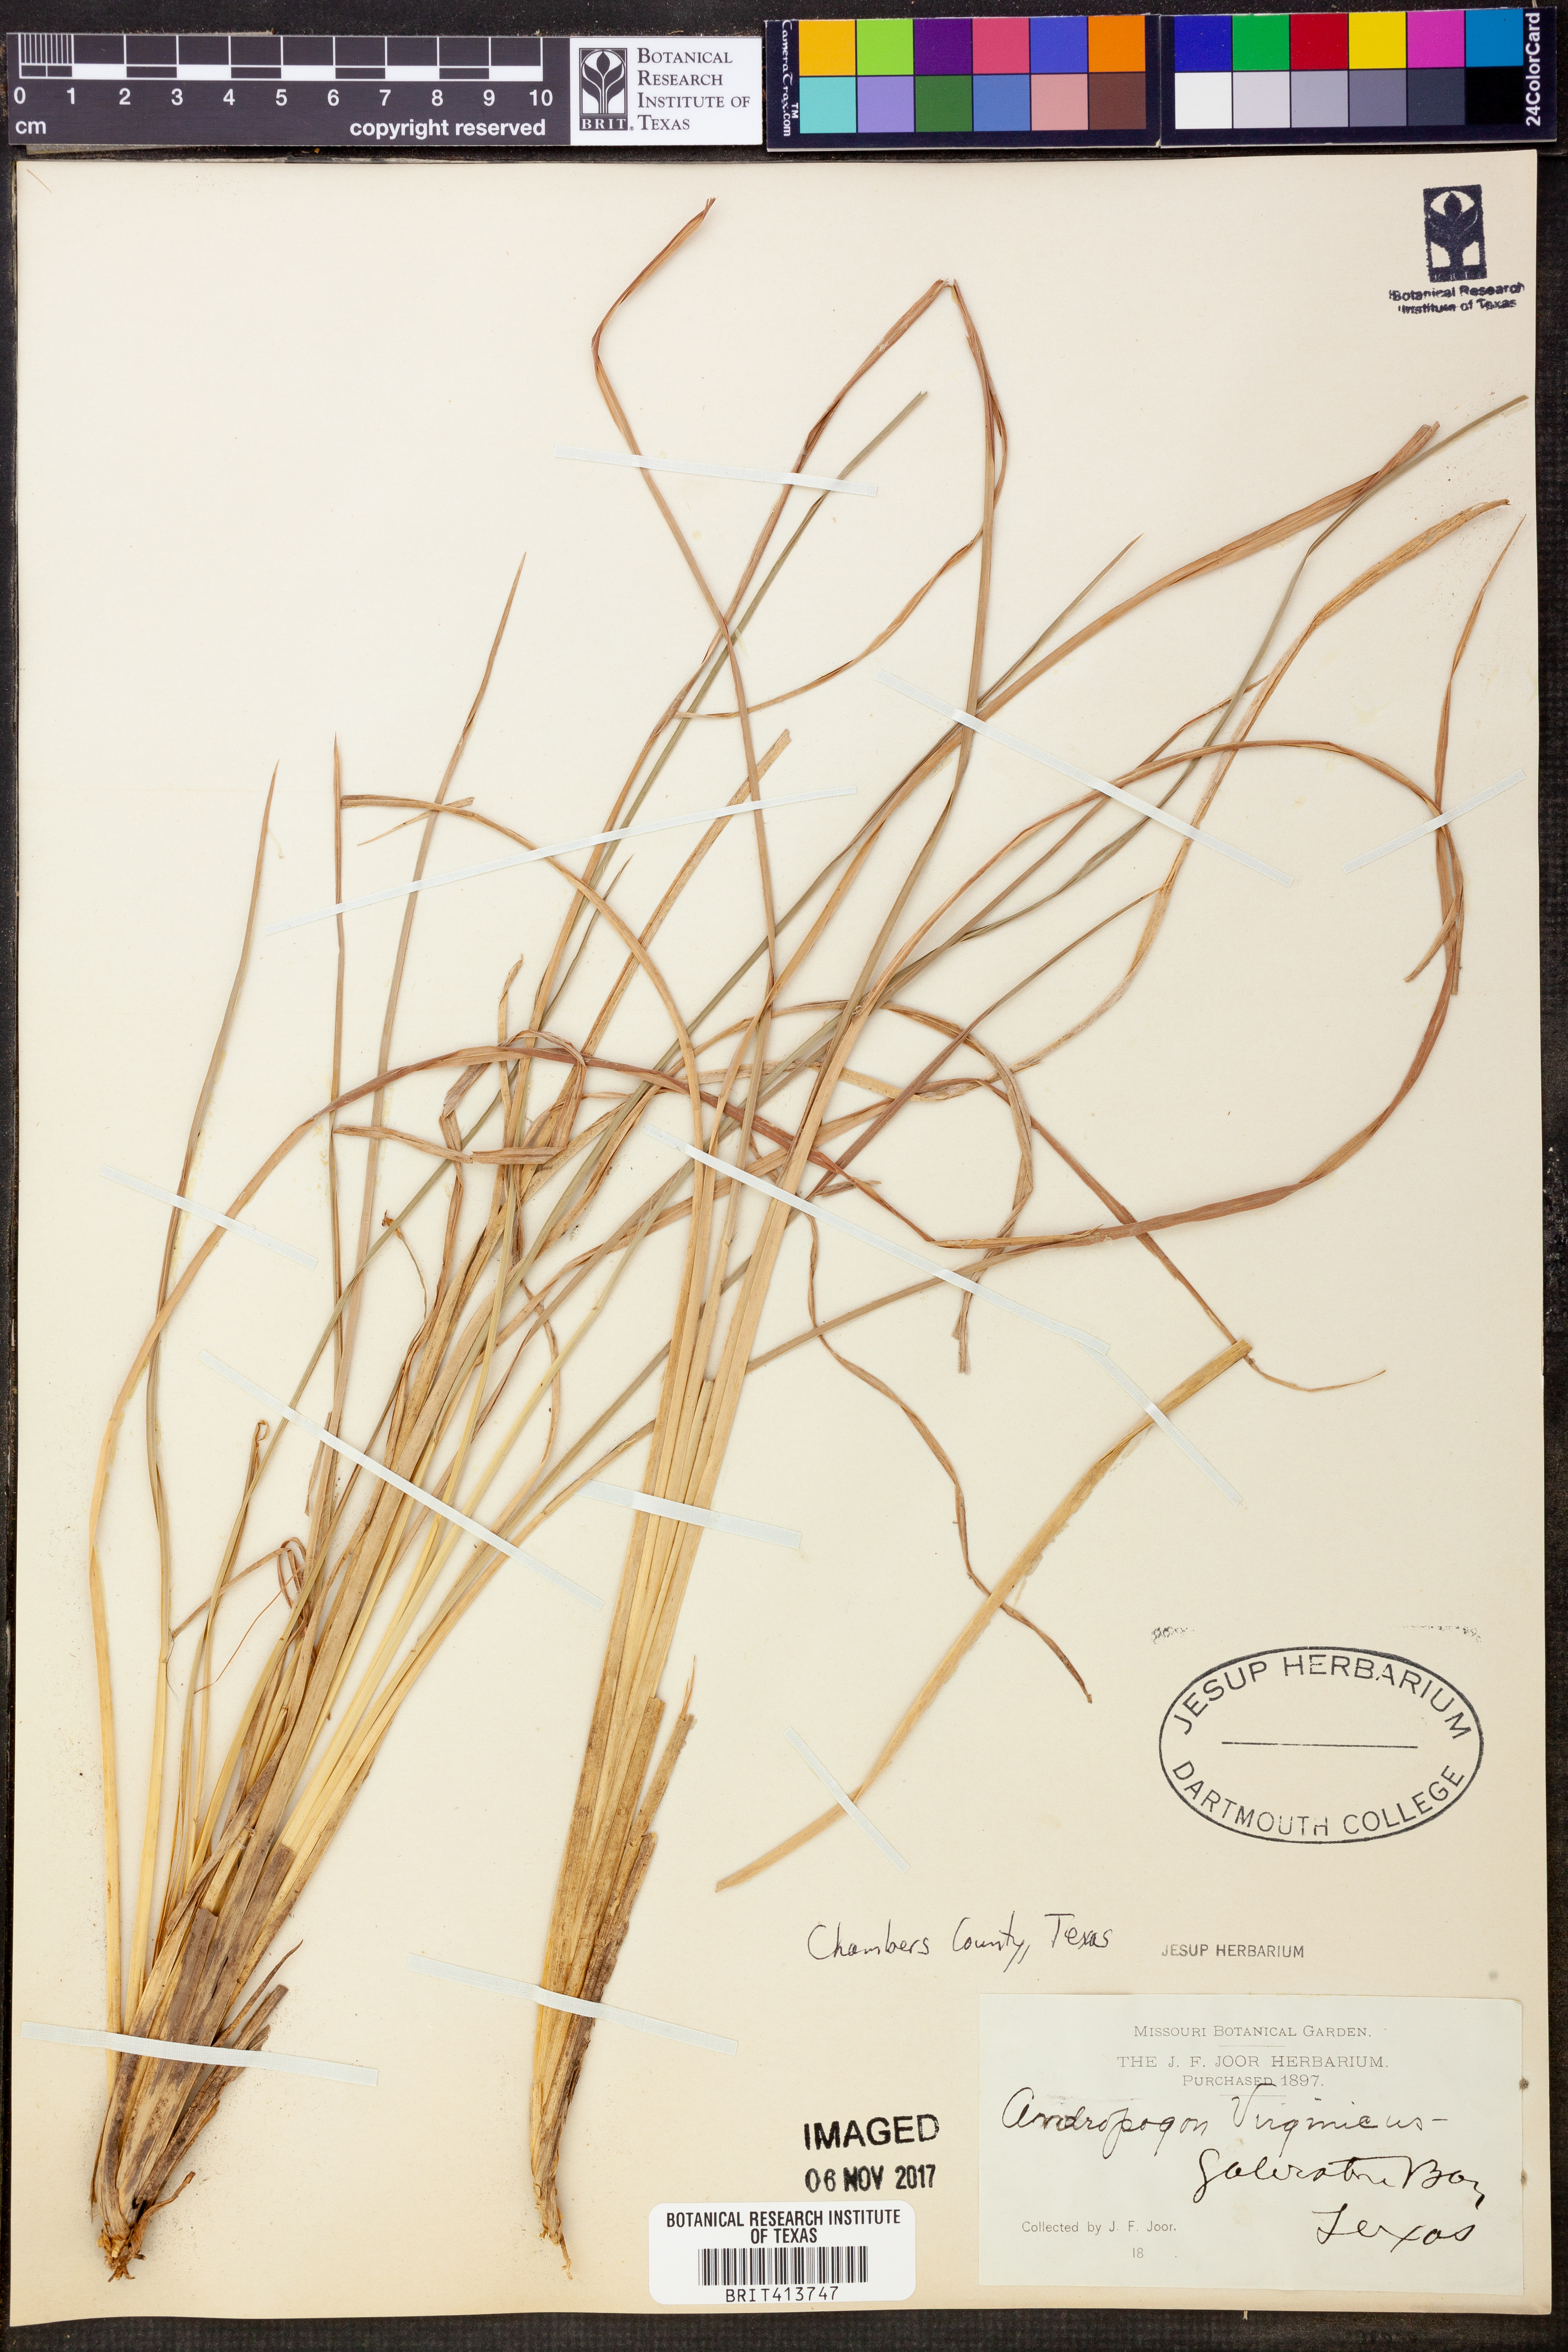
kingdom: Plantae
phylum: Tracheophyta
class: Liliopsida
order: Poales
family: Poaceae
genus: Andropogon
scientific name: Andropogon virginicus
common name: Broomsedge bluestem
